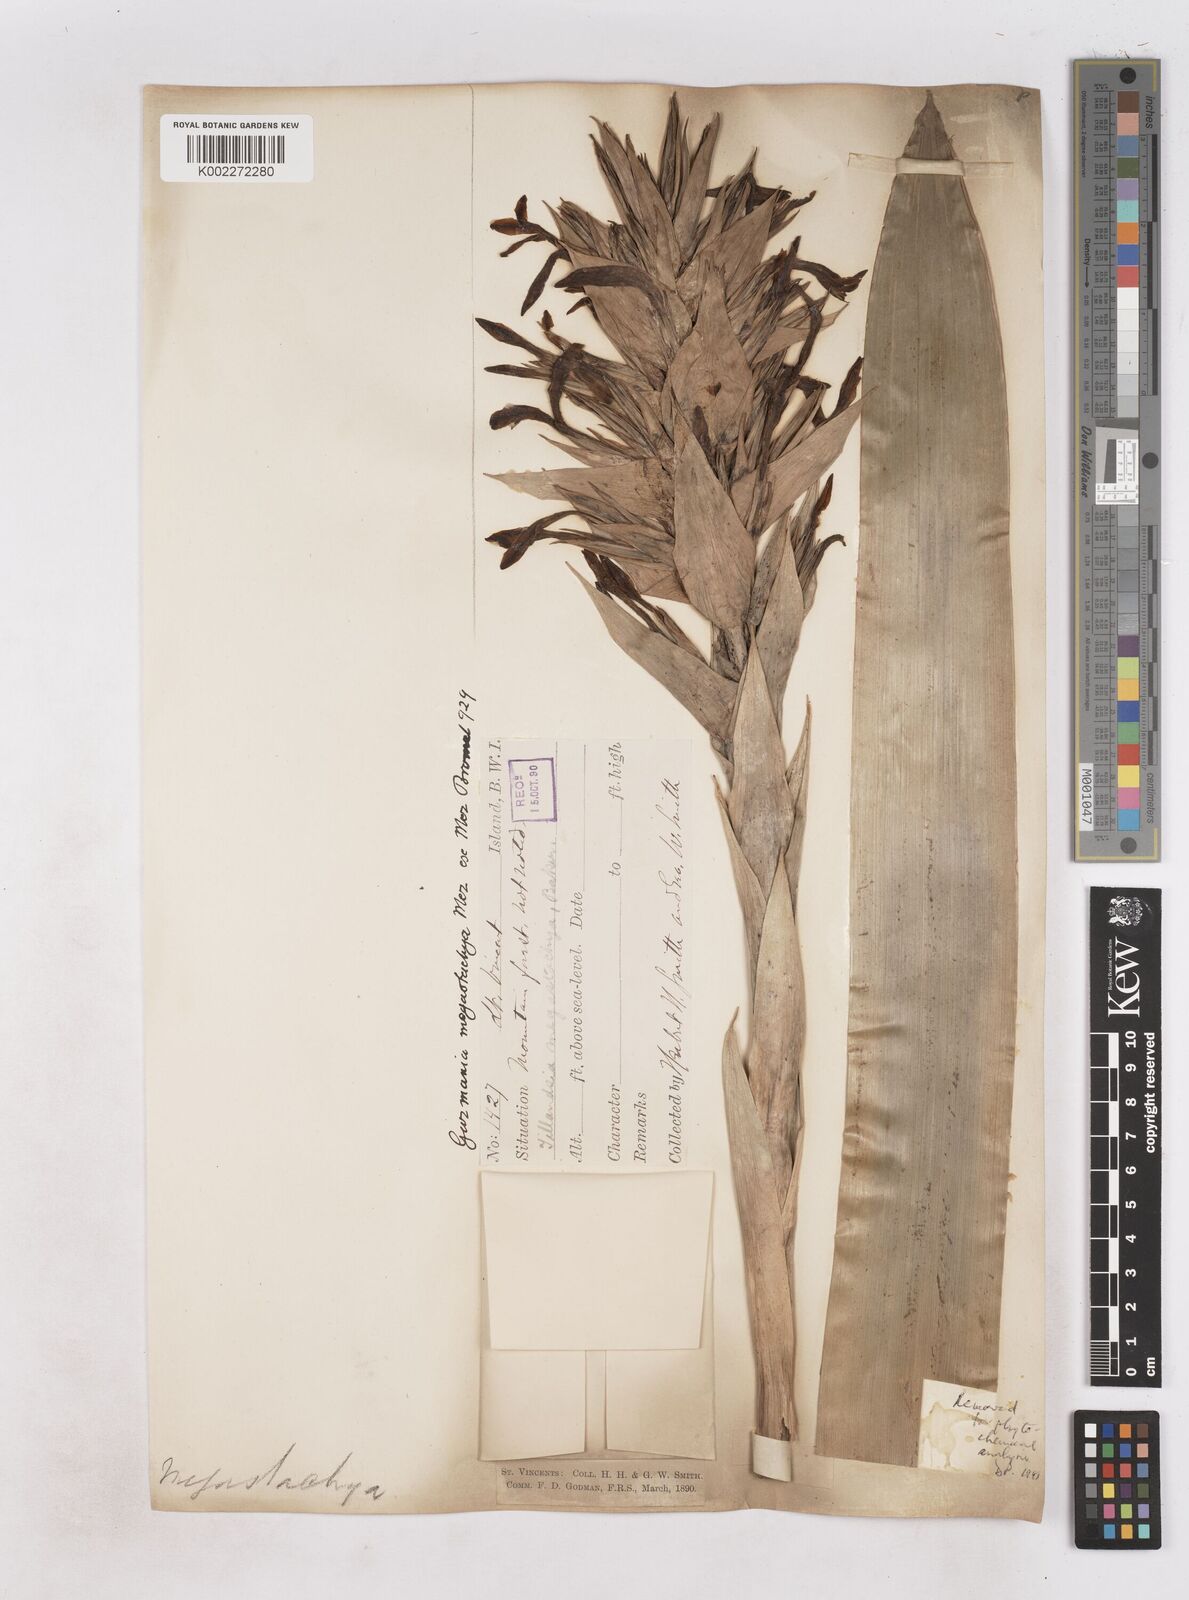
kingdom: Plantae
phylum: Tracheophyta
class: Liliopsida
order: Poales
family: Bromeliaceae
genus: Guzmania
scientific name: Guzmania megastachya
